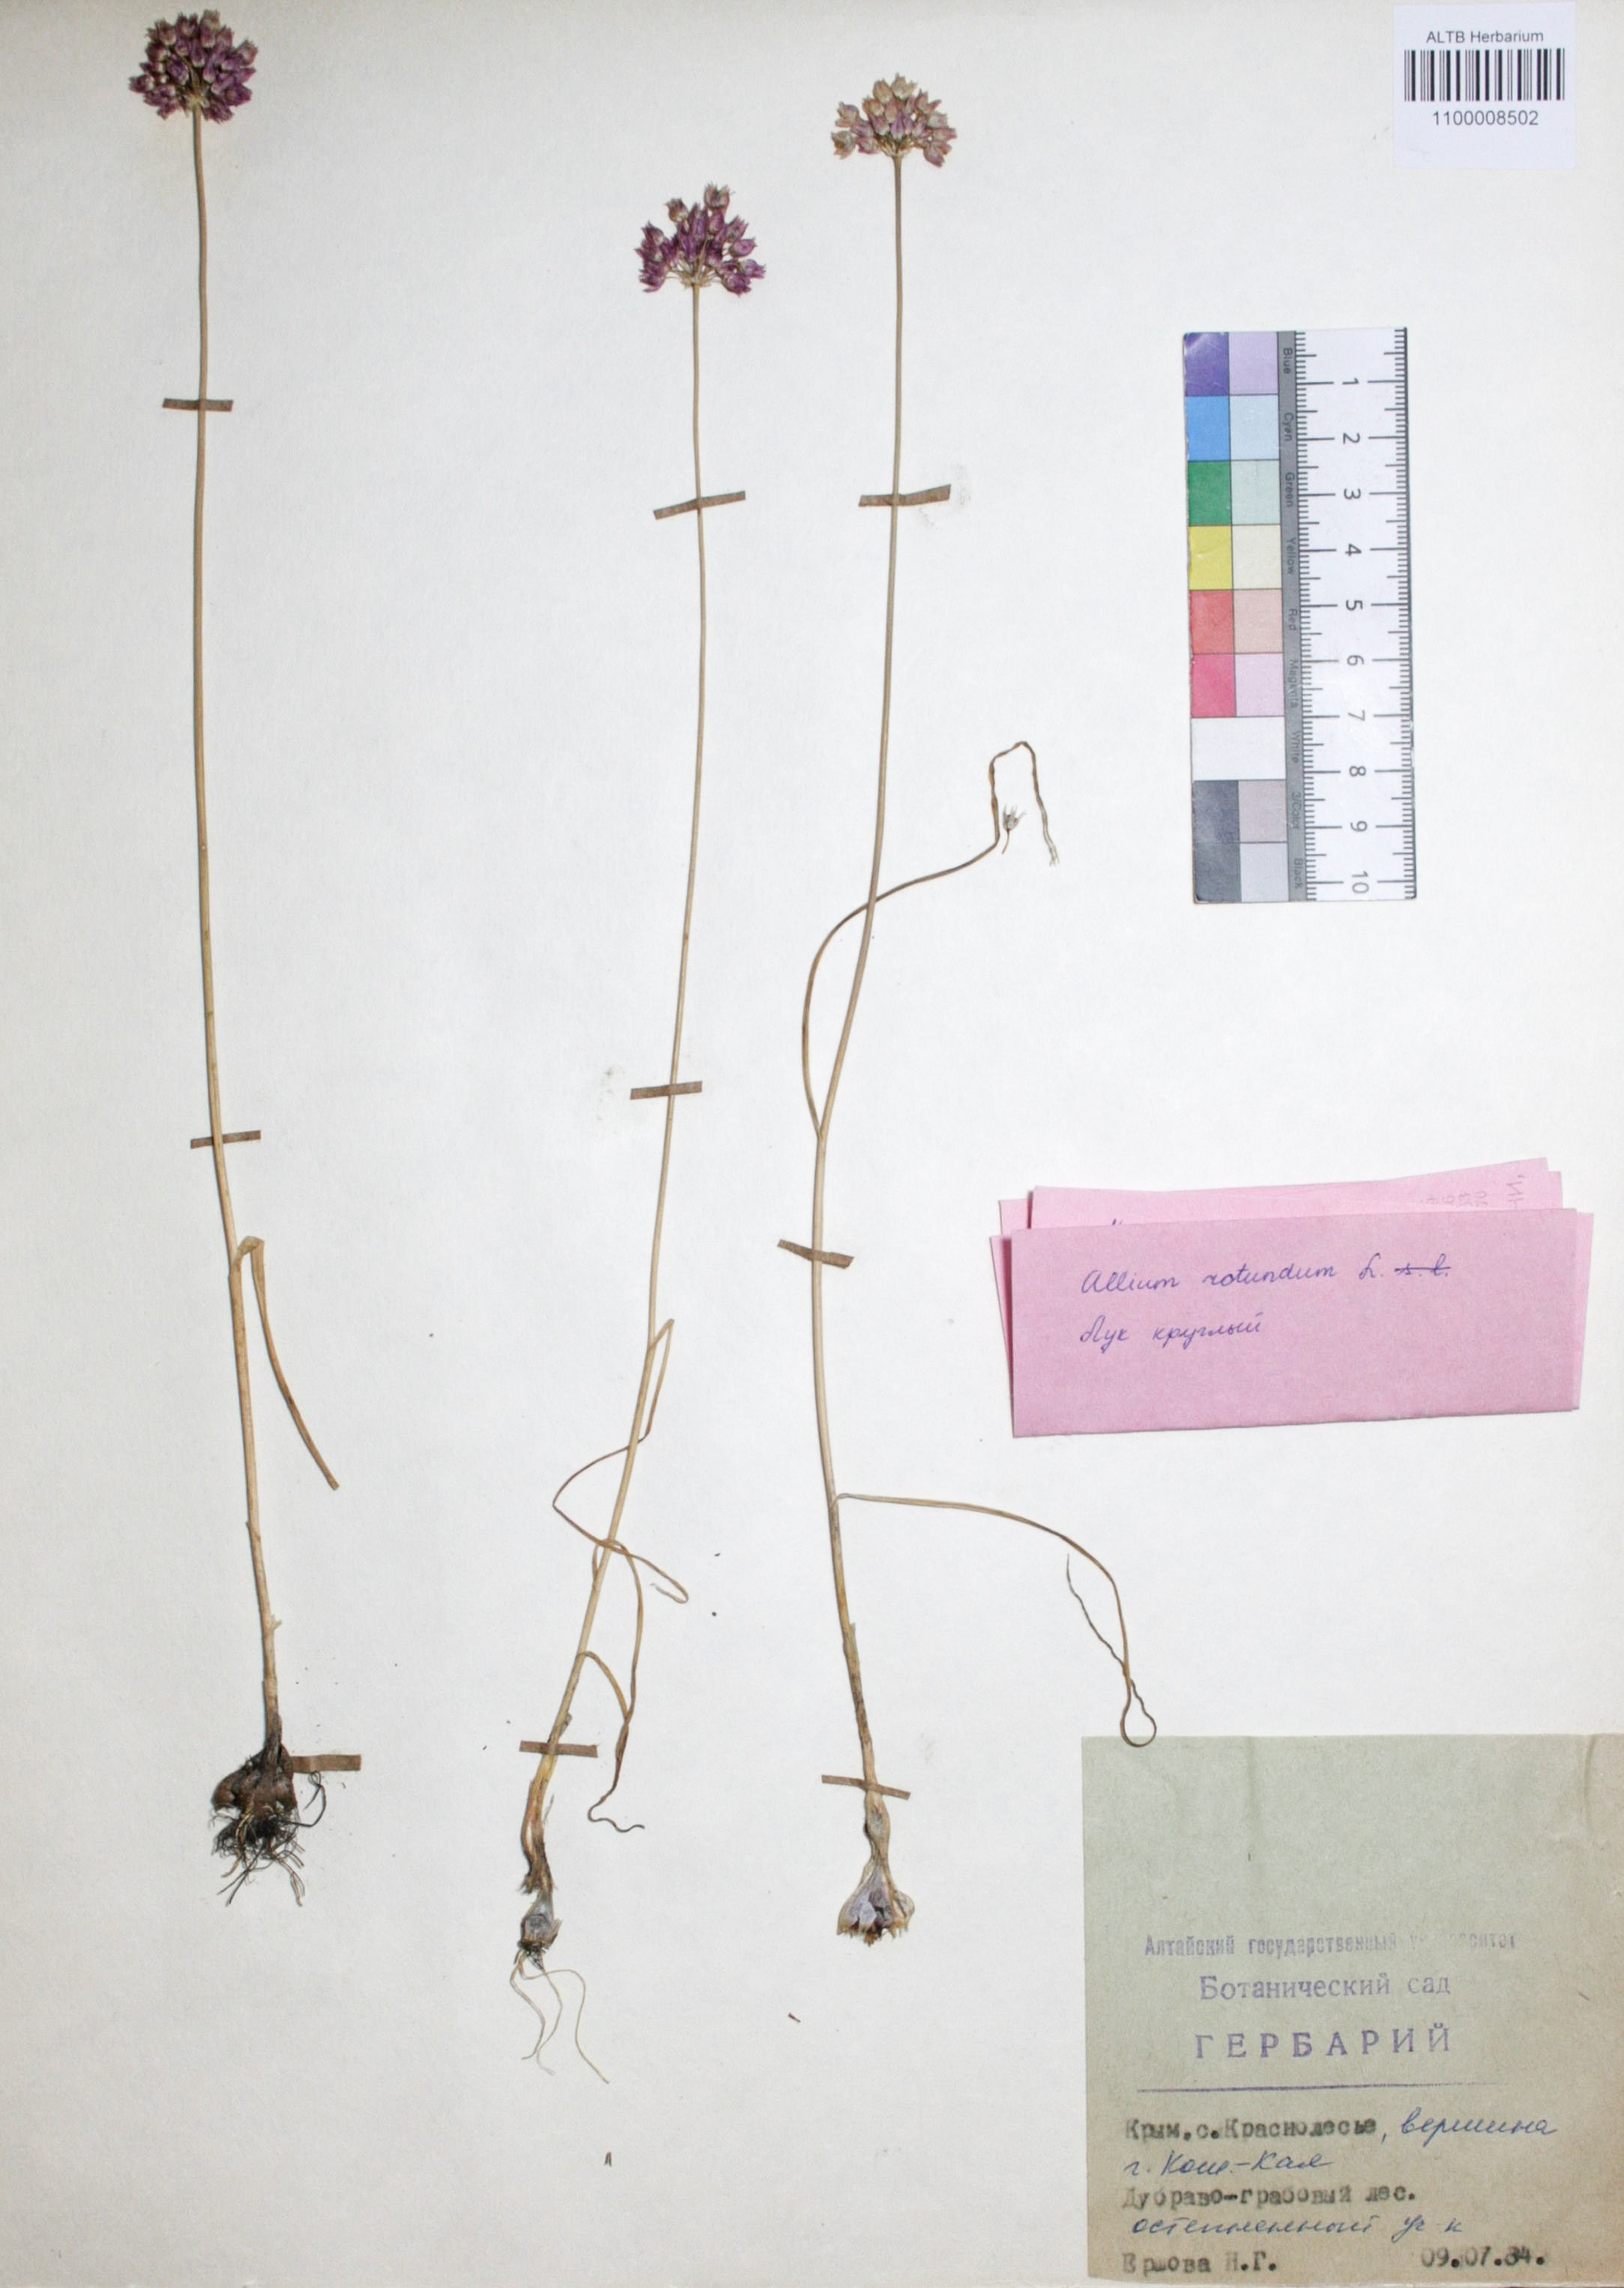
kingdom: Plantae
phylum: Tracheophyta
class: Liliopsida
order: Asparagales
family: Amaryllidaceae
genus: Allium
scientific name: Allium rotundum
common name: Sand leek
